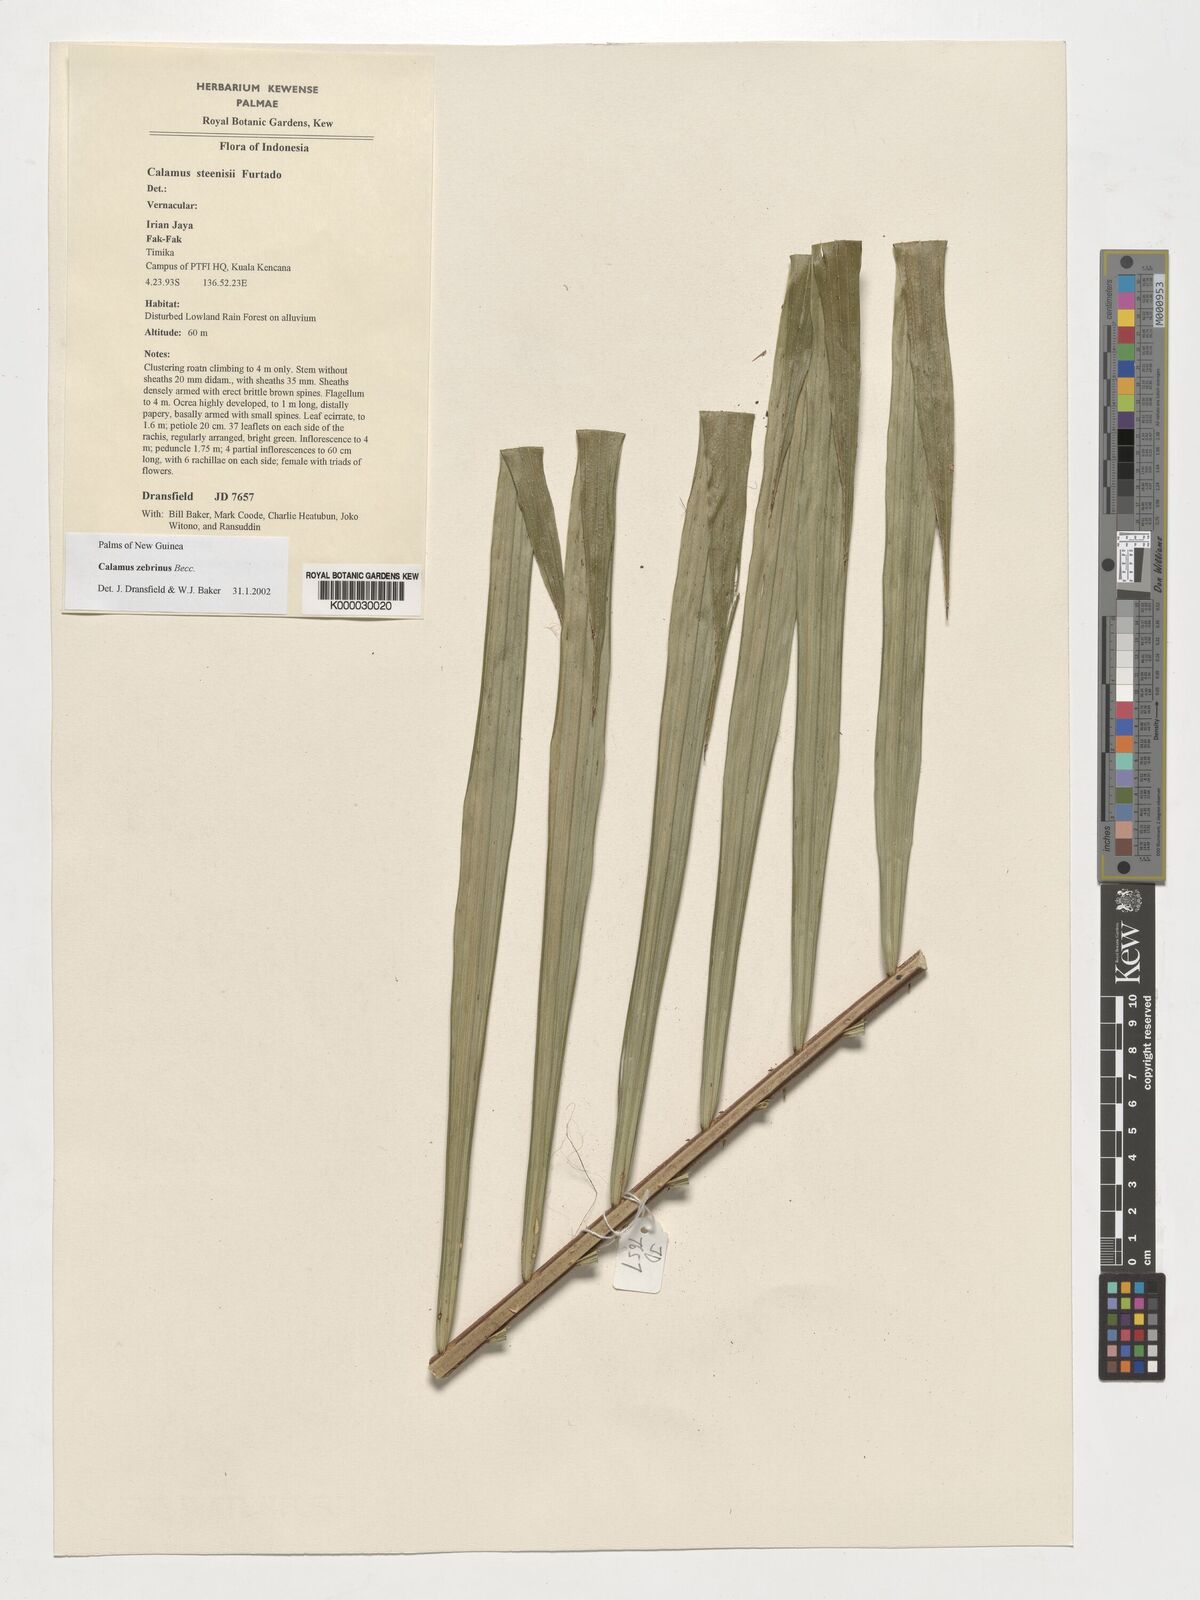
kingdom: Plantae
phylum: Tracheophyta
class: Liliopsida
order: Arecales
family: Arecaceae
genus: Calamus
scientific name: Calamus zebrinus
